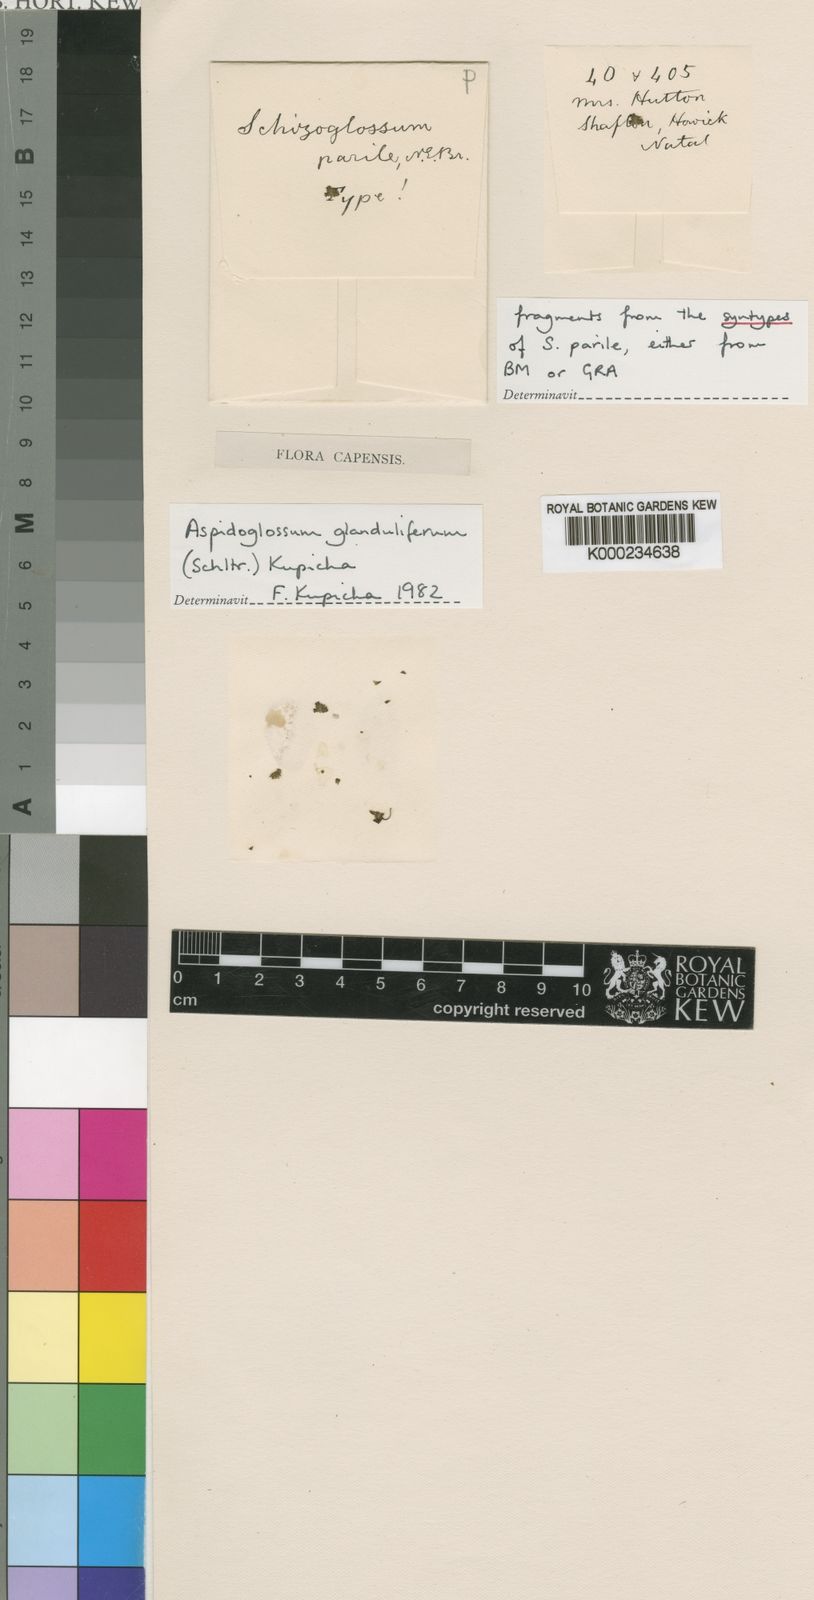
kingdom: Plantae
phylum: Tracheophyta
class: Magnoliopsida
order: Gentianales
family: Apocynaceae
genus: Aspidoglossum
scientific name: Aspidoglossum glanduliferum
